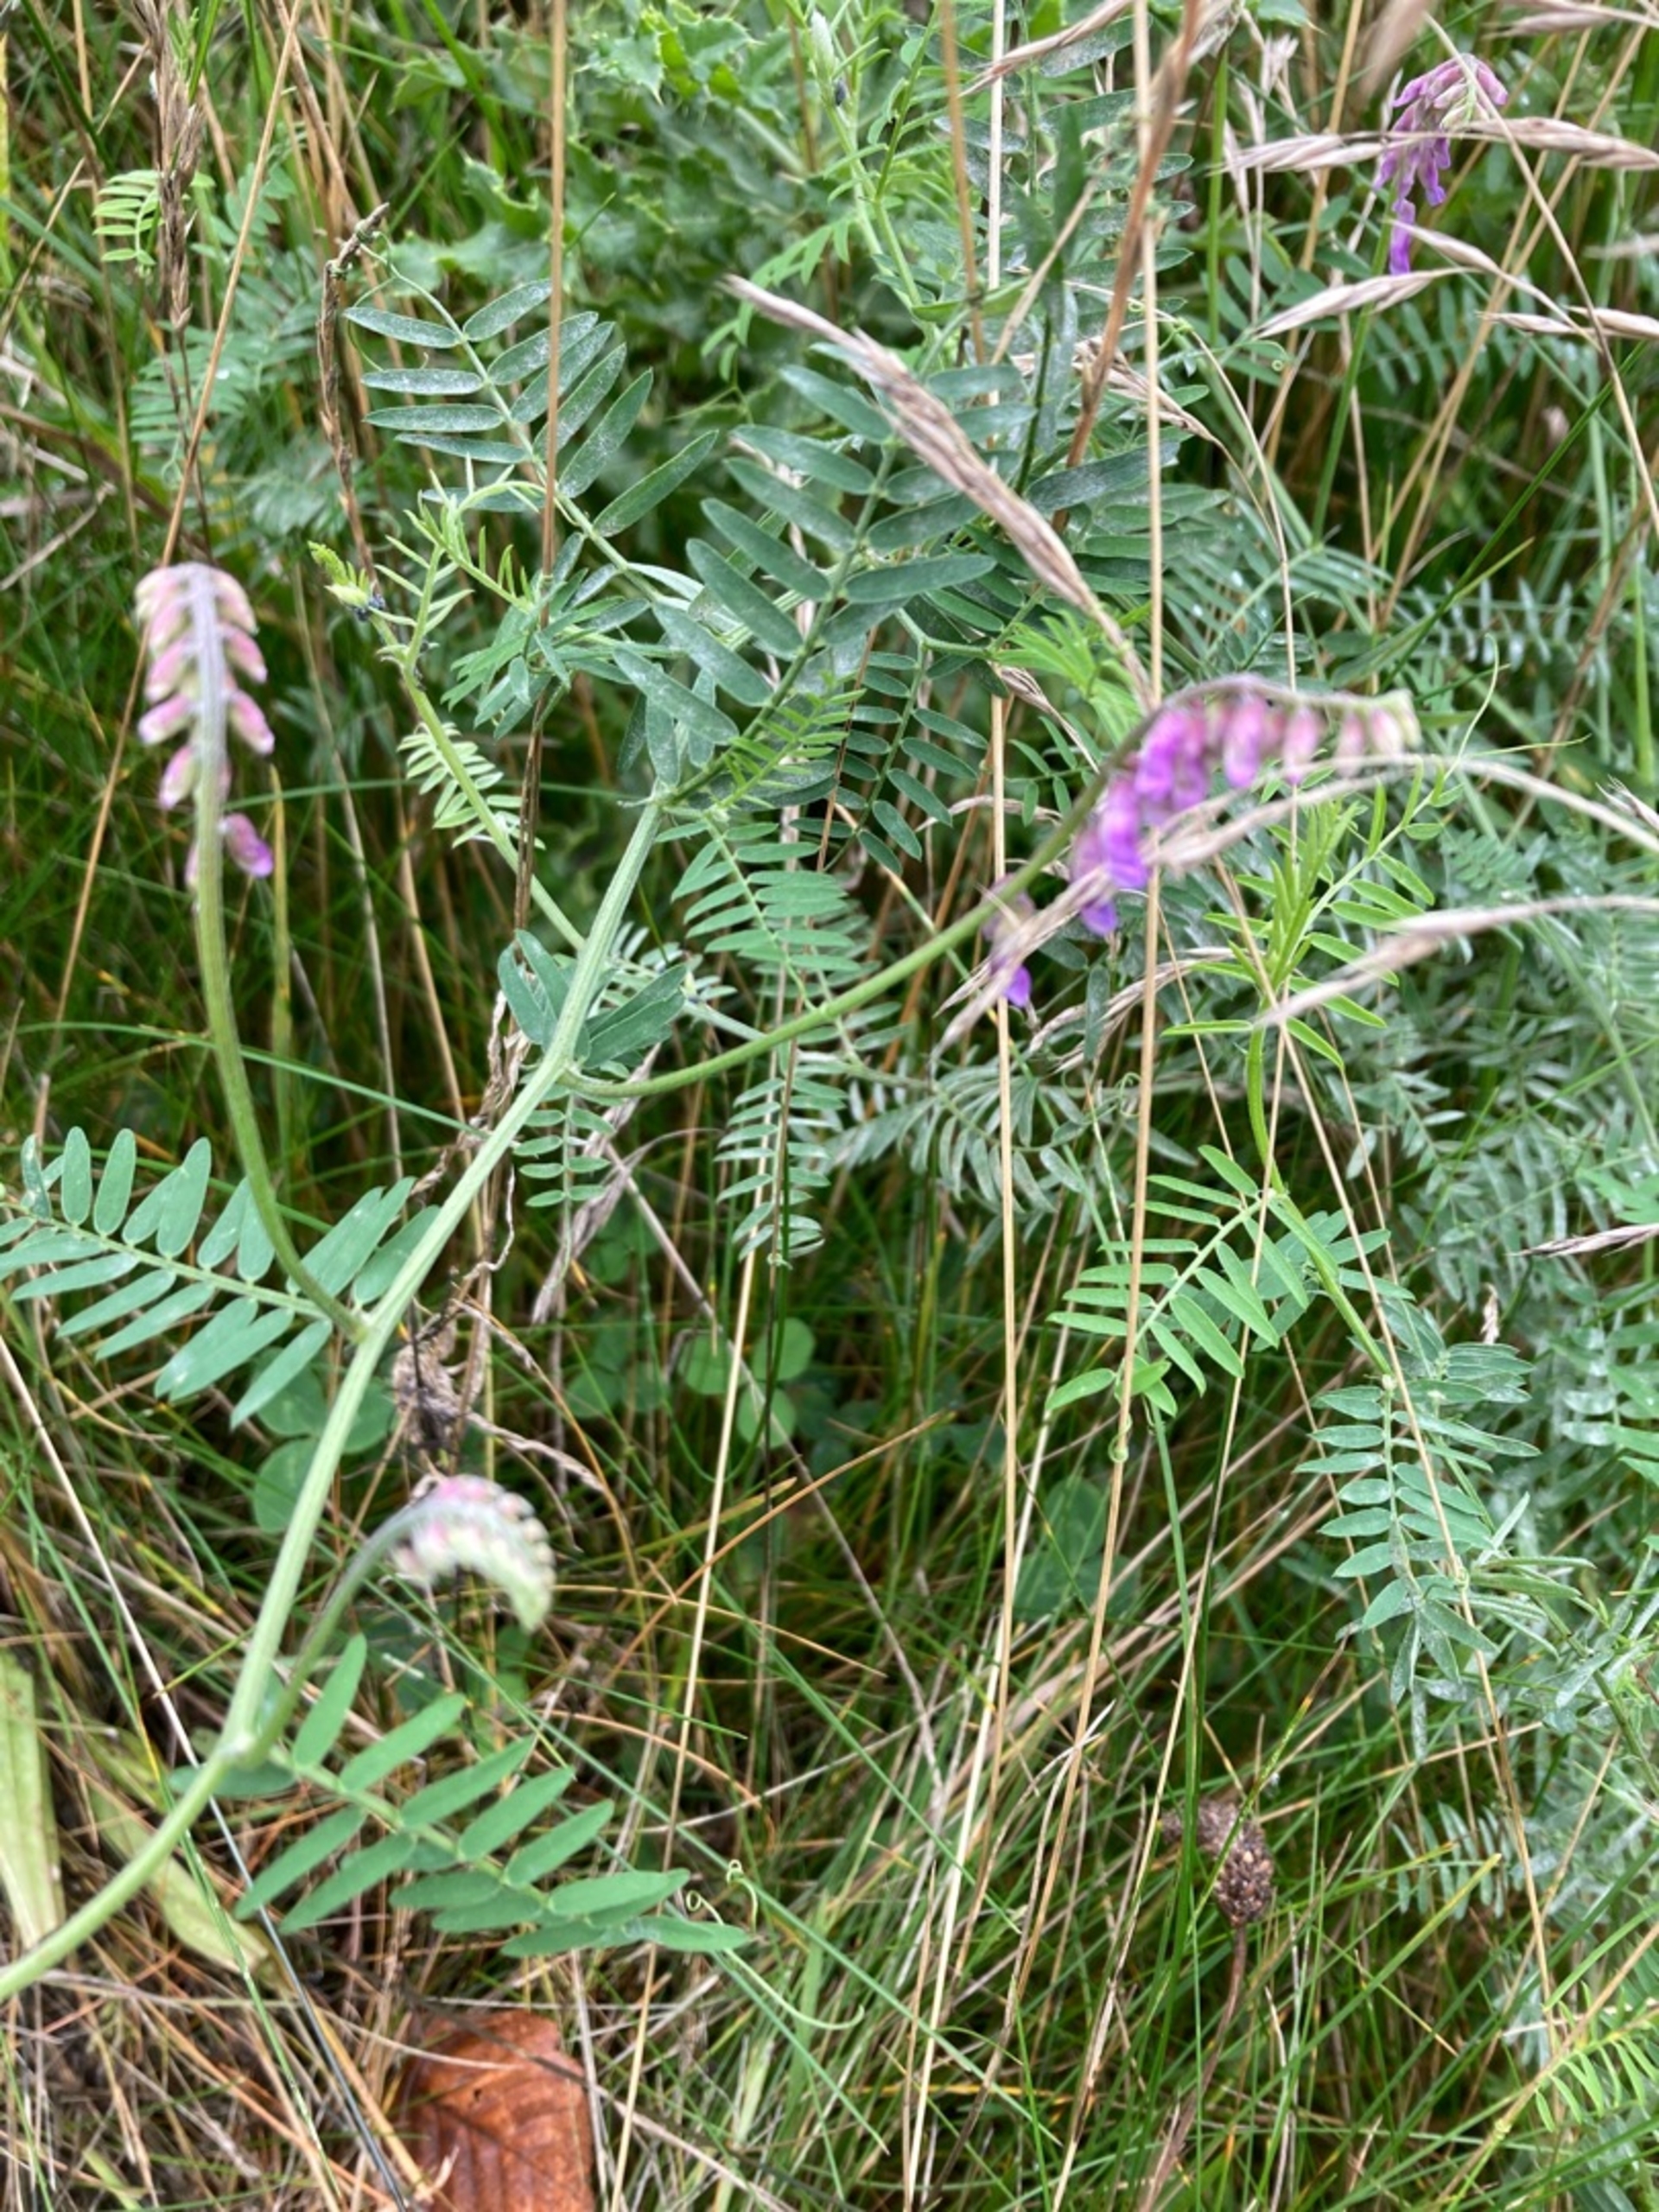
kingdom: Plantae
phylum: Tracheophyta
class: Magnoliopsida
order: Fabales
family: Fabaceae
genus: Vicia
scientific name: Vicia cracca
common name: Muse-vikke
